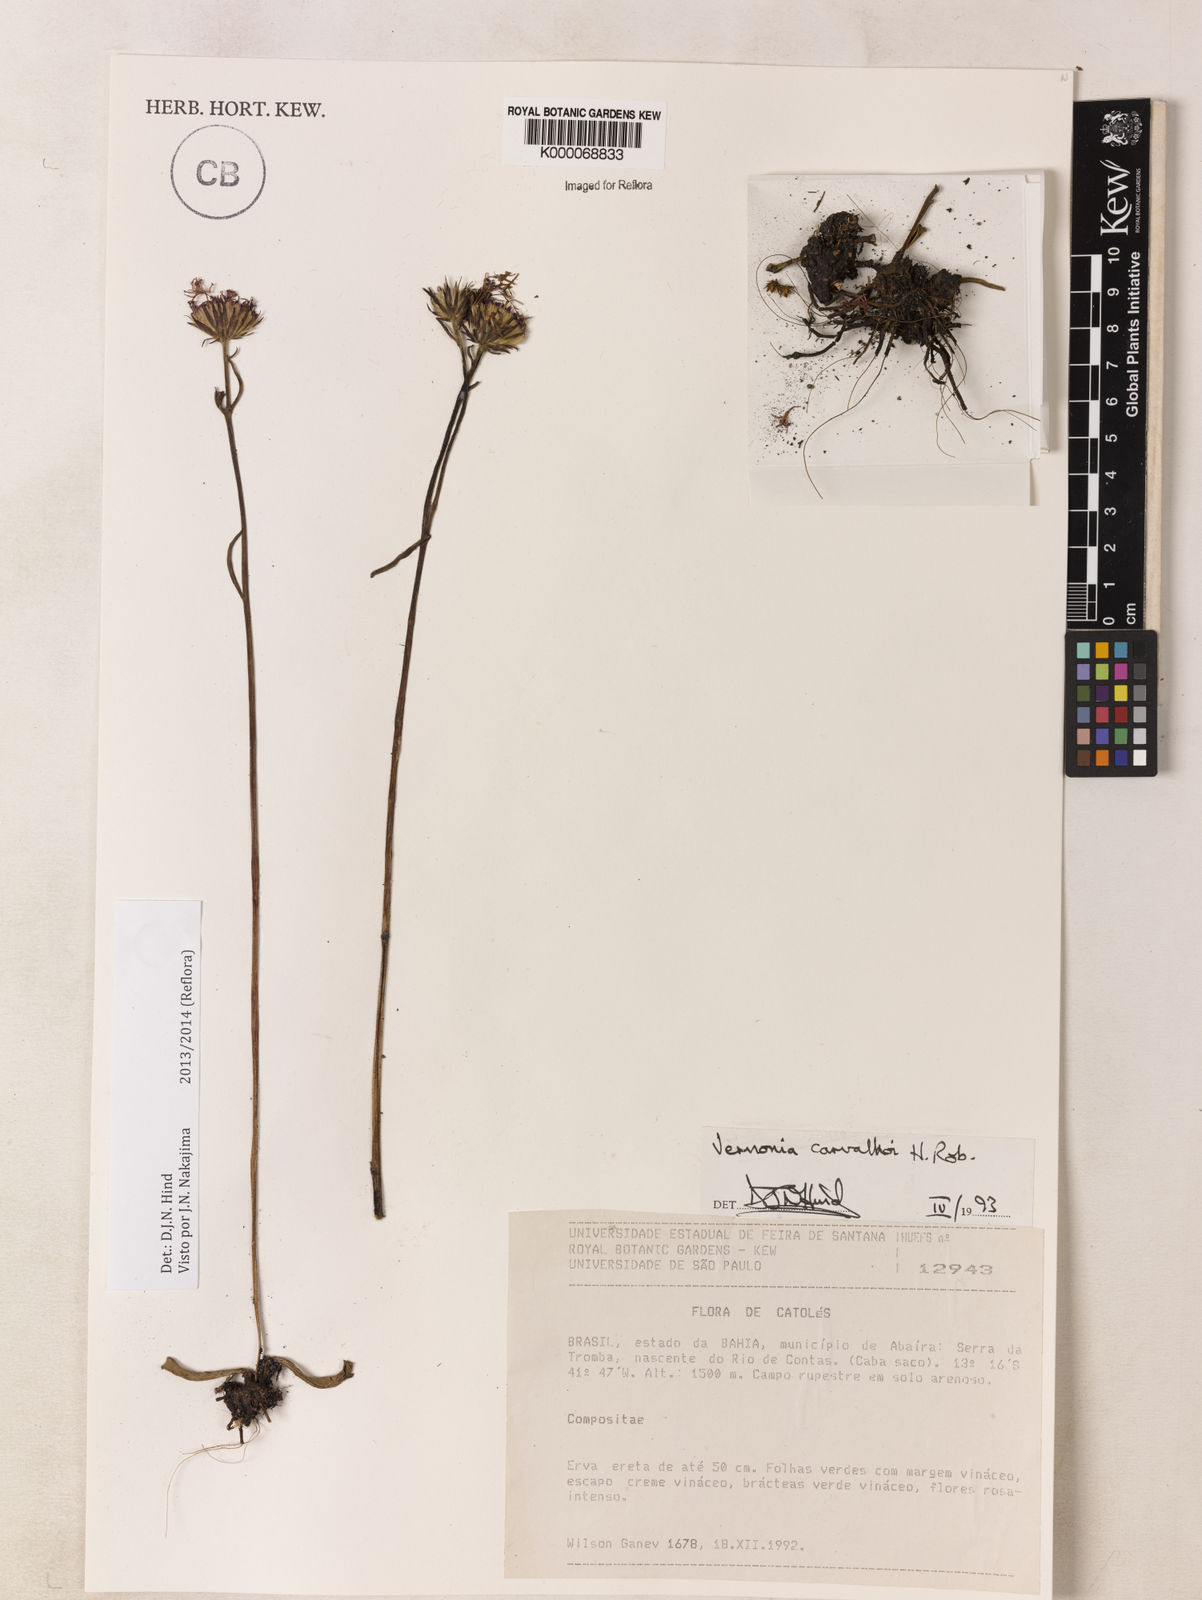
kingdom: Plantae
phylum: Tracheophyta
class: Magnoliopsida
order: Asterales
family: Asteraceae
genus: Lessingianthus
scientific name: Lessingianthus carvalhoi
